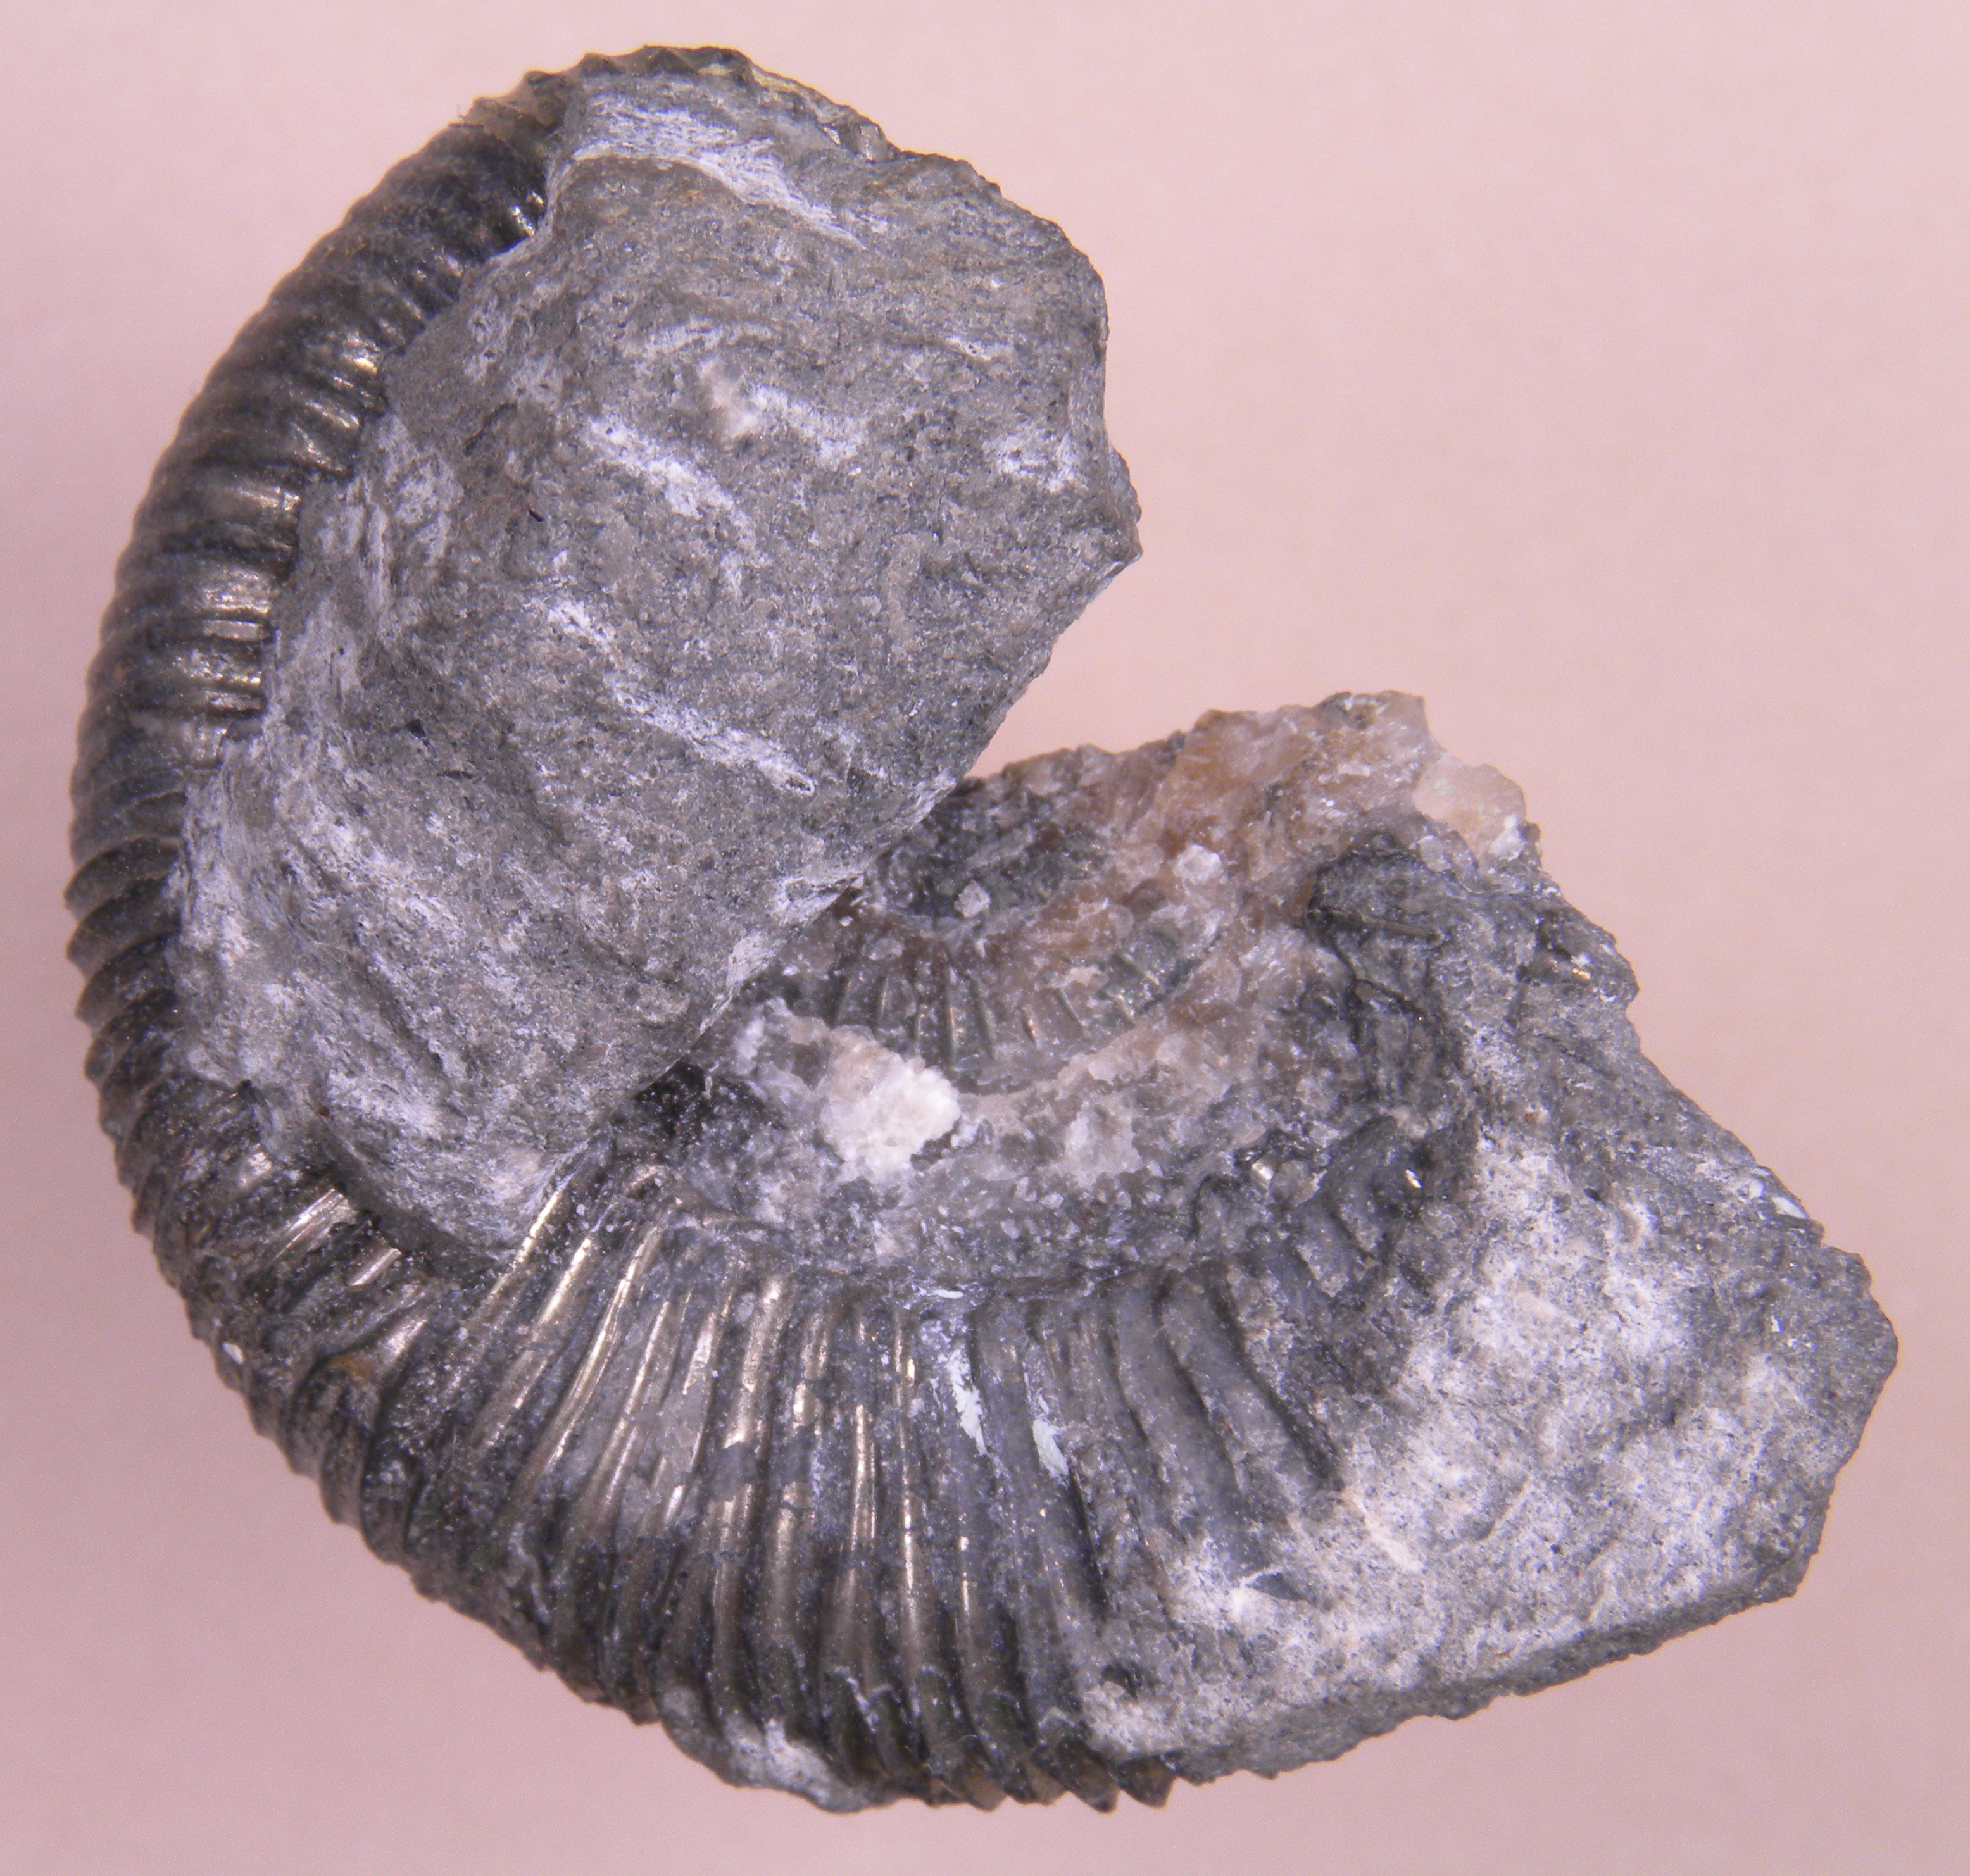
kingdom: Animalia
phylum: Mollusca
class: Cephalopoda
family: Dactylioceratidae
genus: Dactylioceras
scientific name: Dactylioceras
